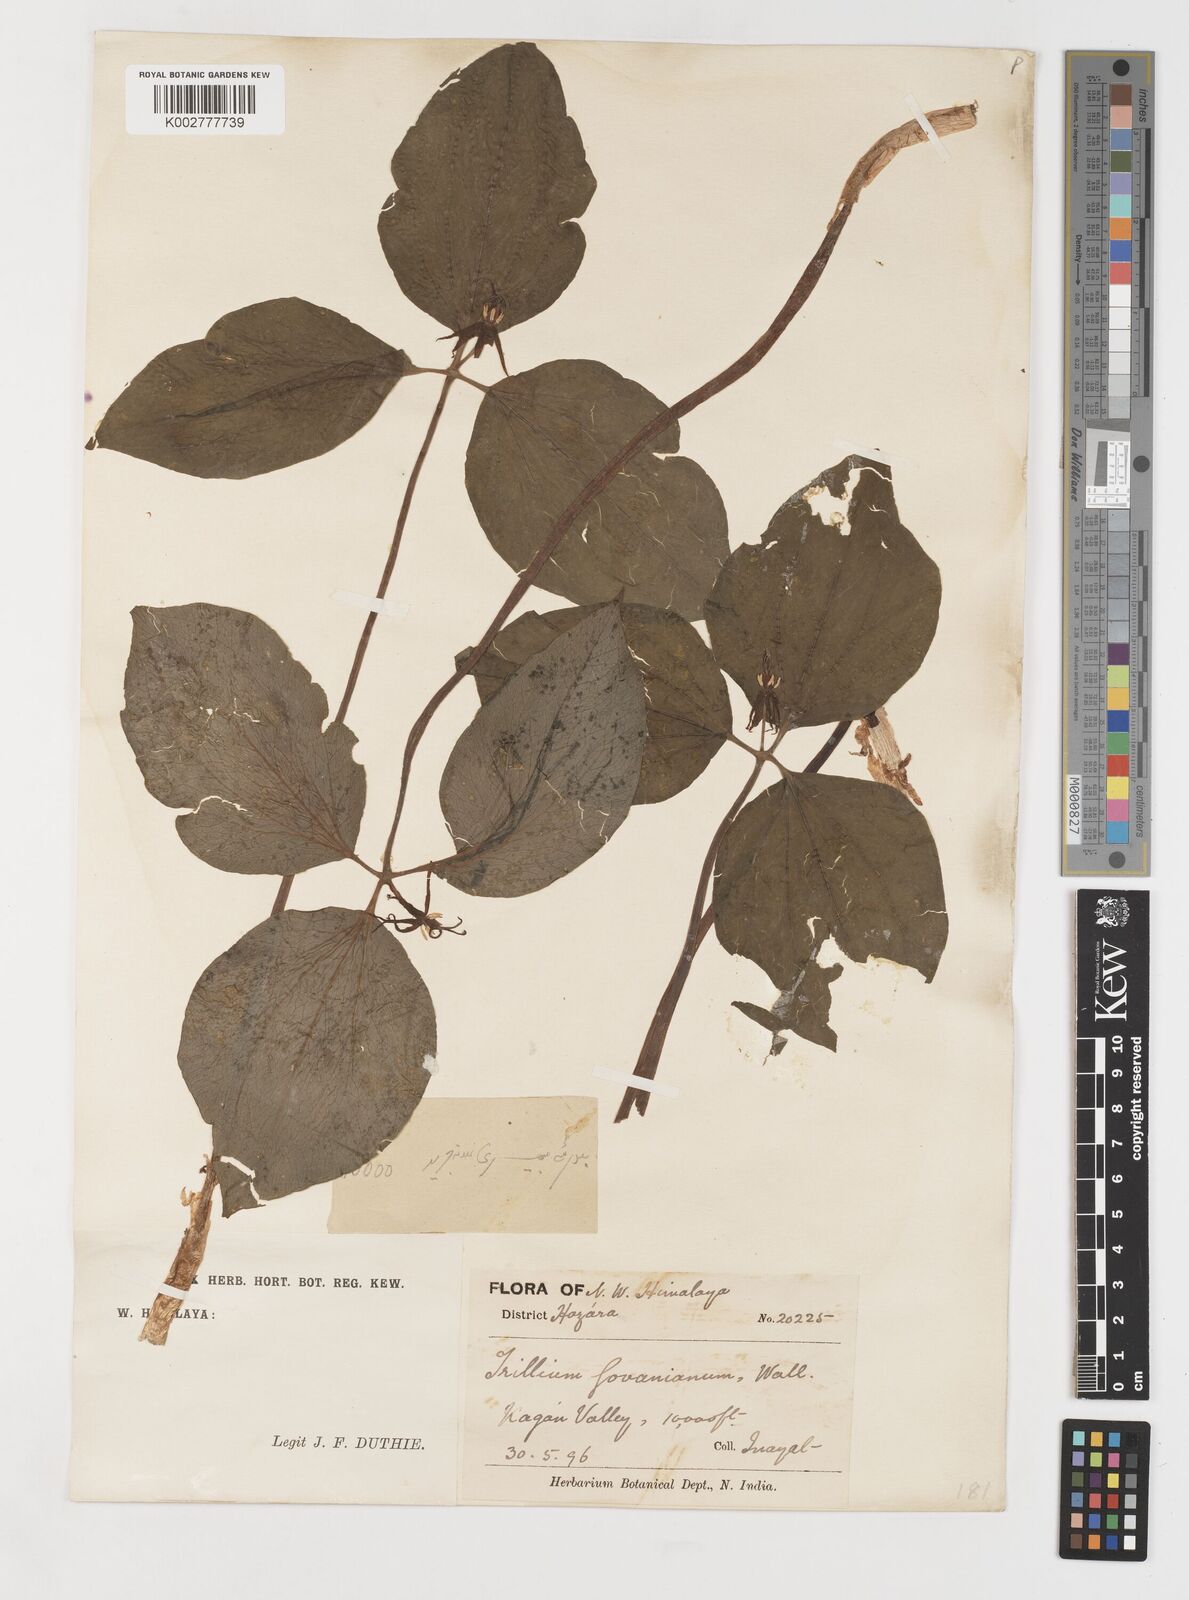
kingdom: Plantae
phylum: Tracheophyta
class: Liliopsida
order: Liliales
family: Melanthiaceae
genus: Trillium
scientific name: Trillium govanianum
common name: Himalayan trillium
